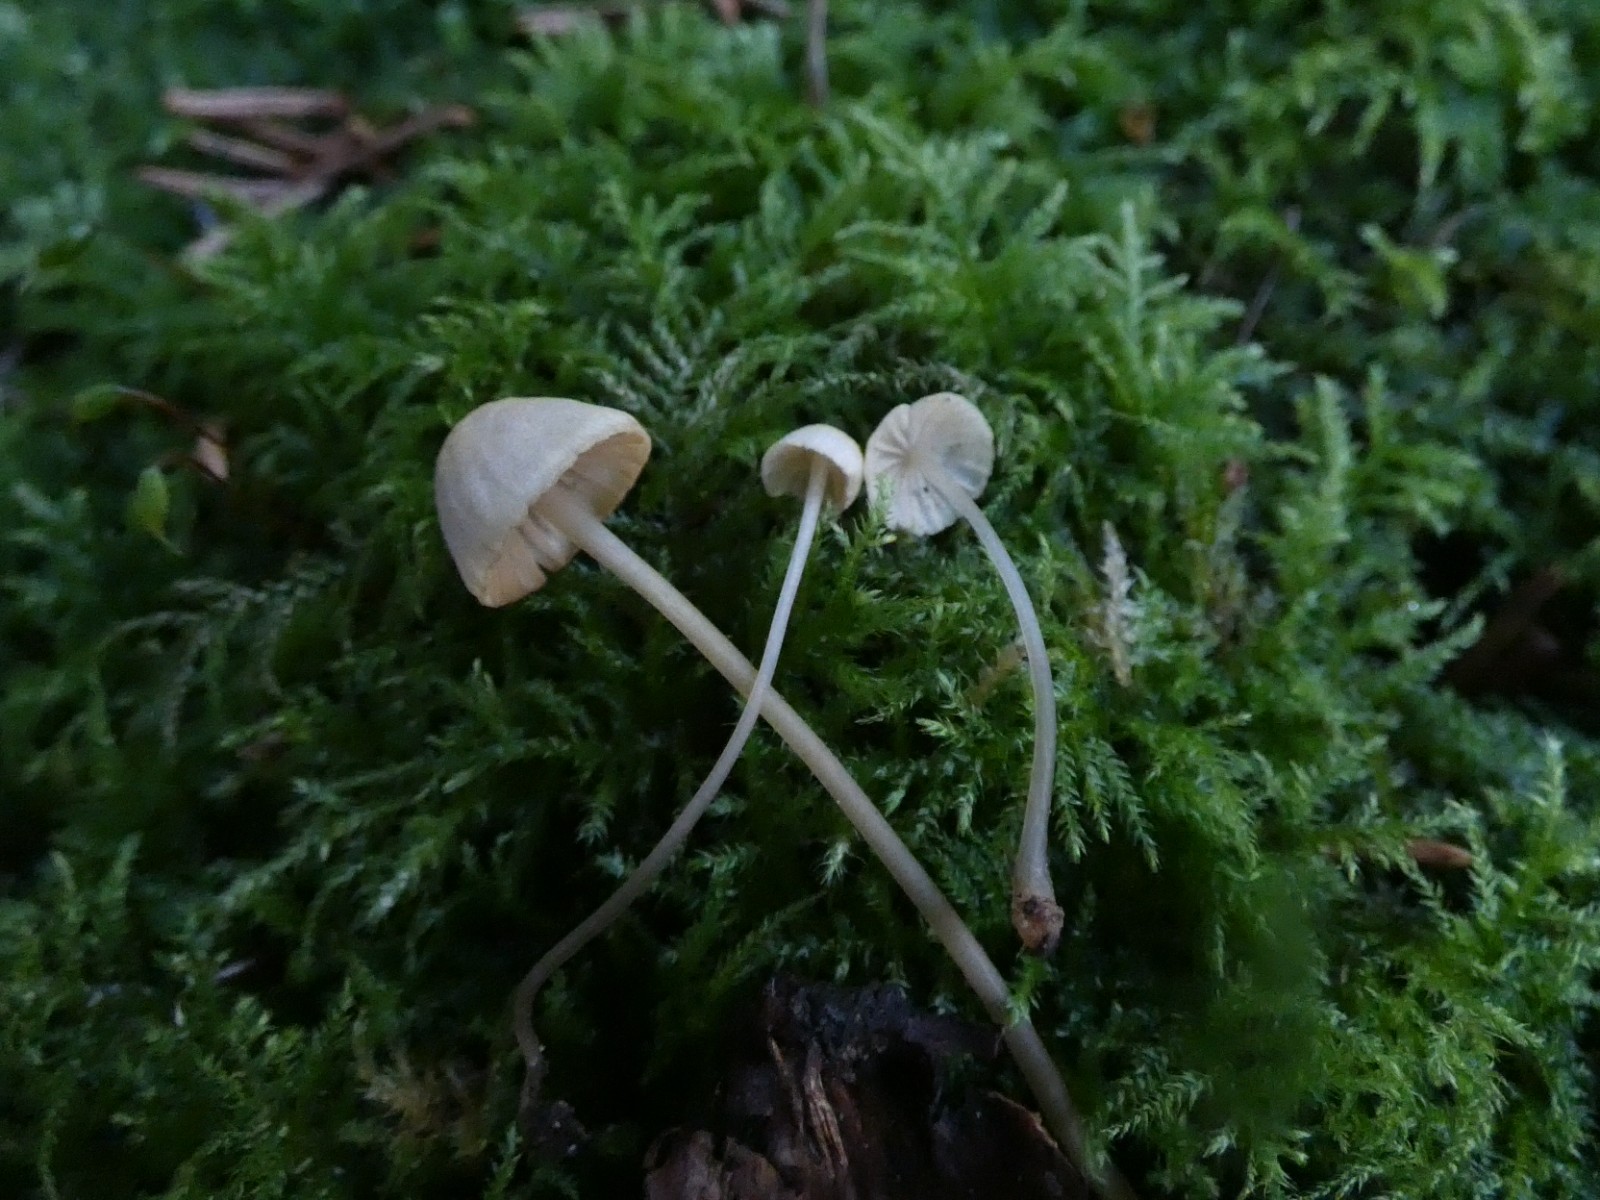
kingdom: Fungi
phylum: Basidiomycota
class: Agaricomycetes
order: Agaricales
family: Mycenaceae
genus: Mycena
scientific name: Mycena citrinomarginata
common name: gulægget huesvamp
